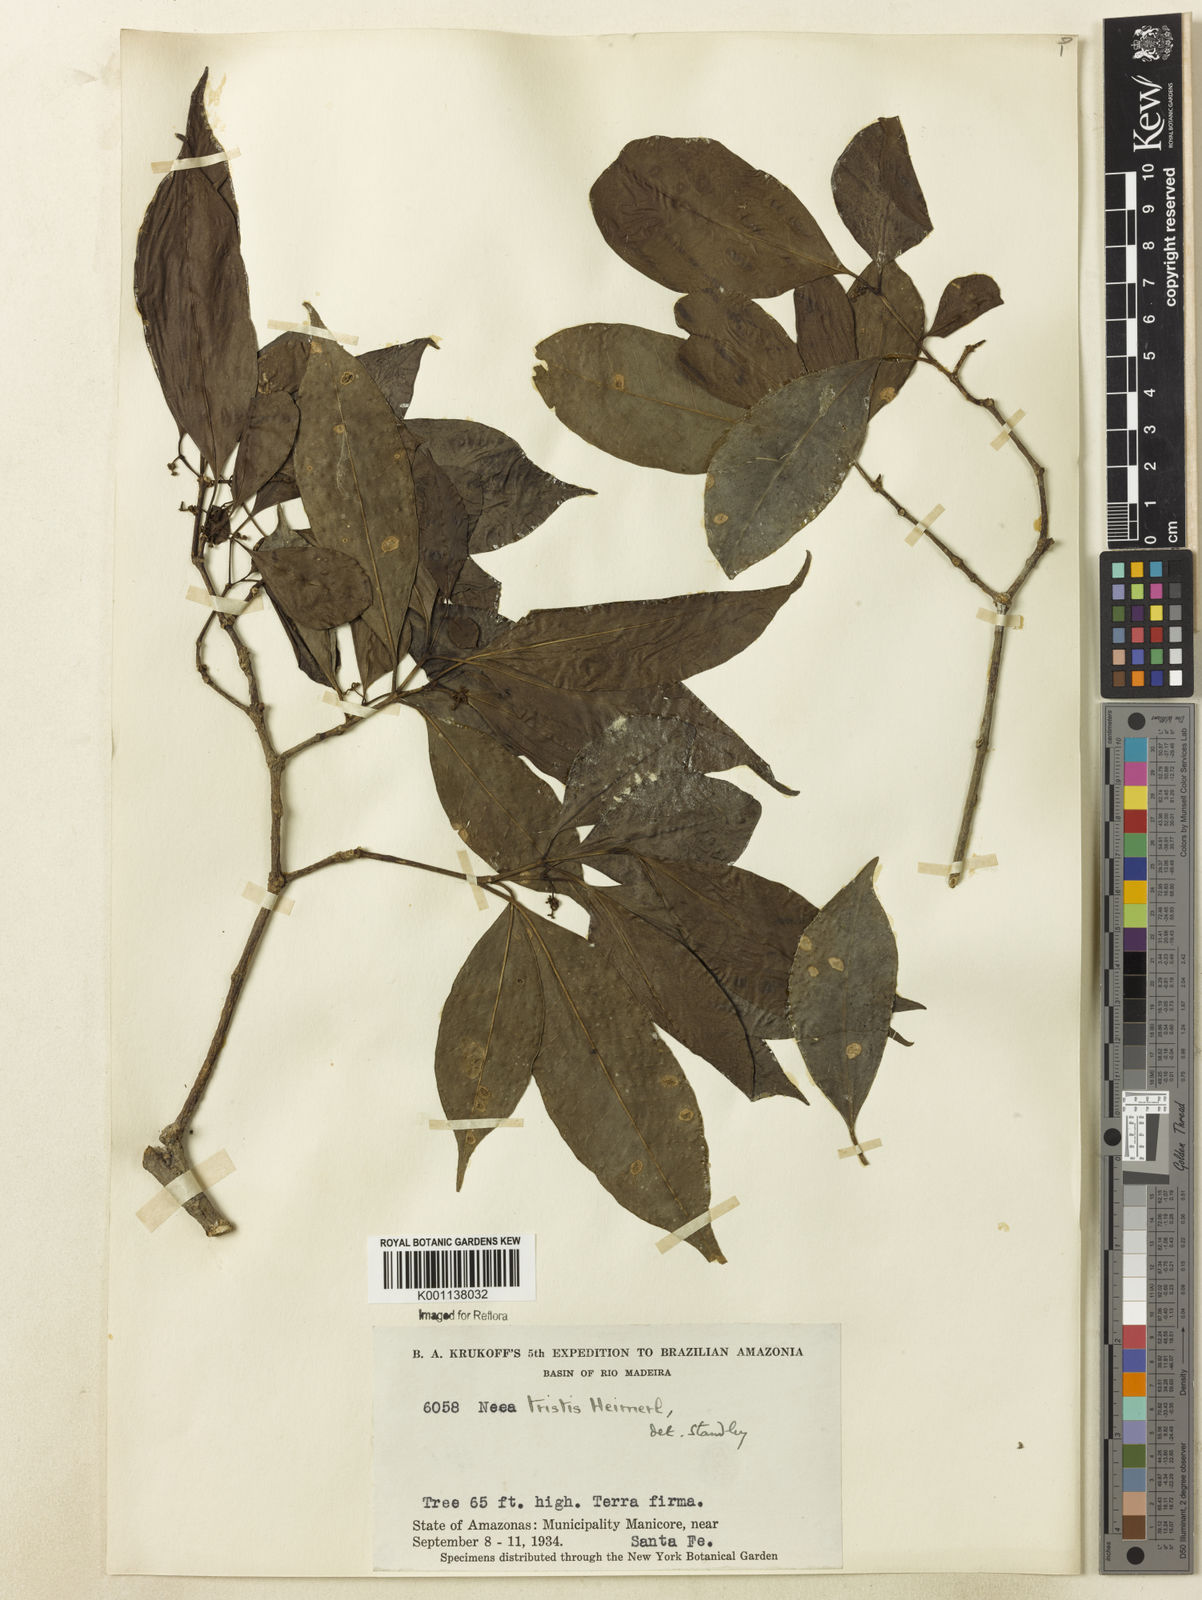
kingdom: Plantae
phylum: Tracheophyta
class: Magnoliopsida
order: Caryophyllales
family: Nyctaginaceae
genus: Neea
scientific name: Neea tristis
